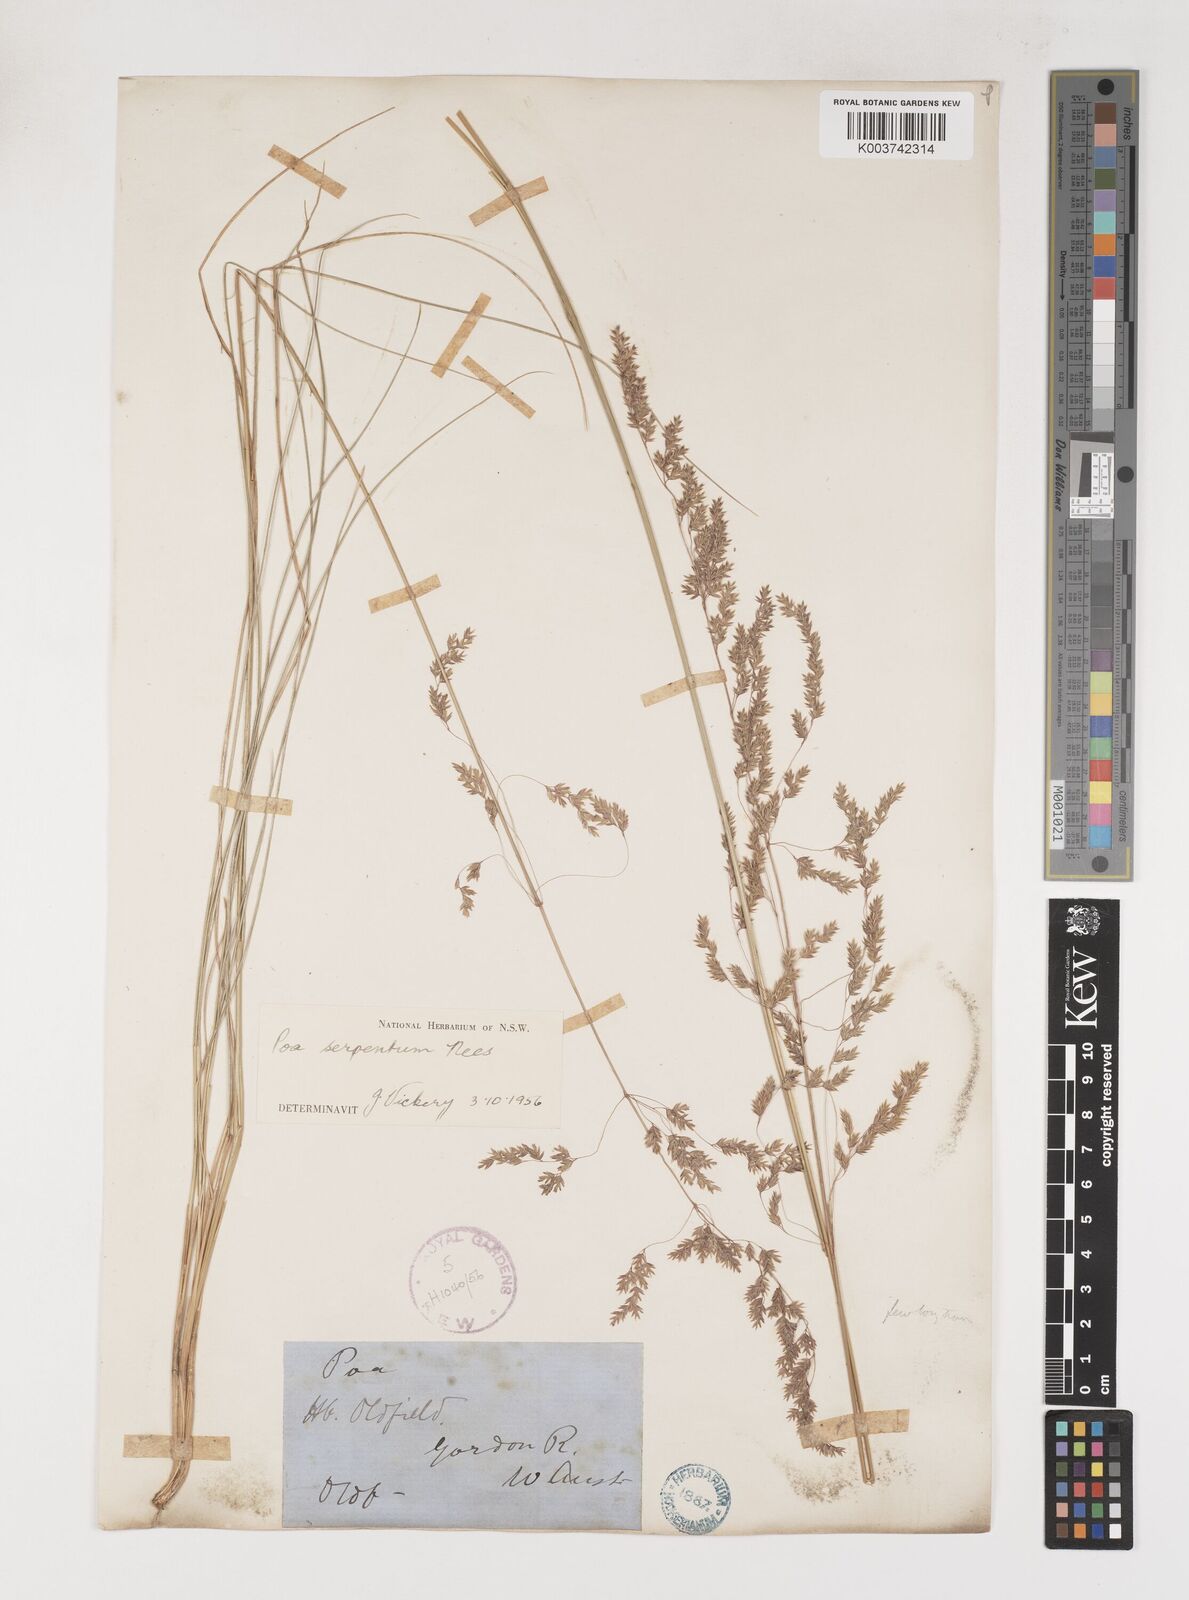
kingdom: Plantae
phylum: Tracheophyta
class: Liliopsida
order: Poales
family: Poaceae
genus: Poa
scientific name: Poa porphyroclados
